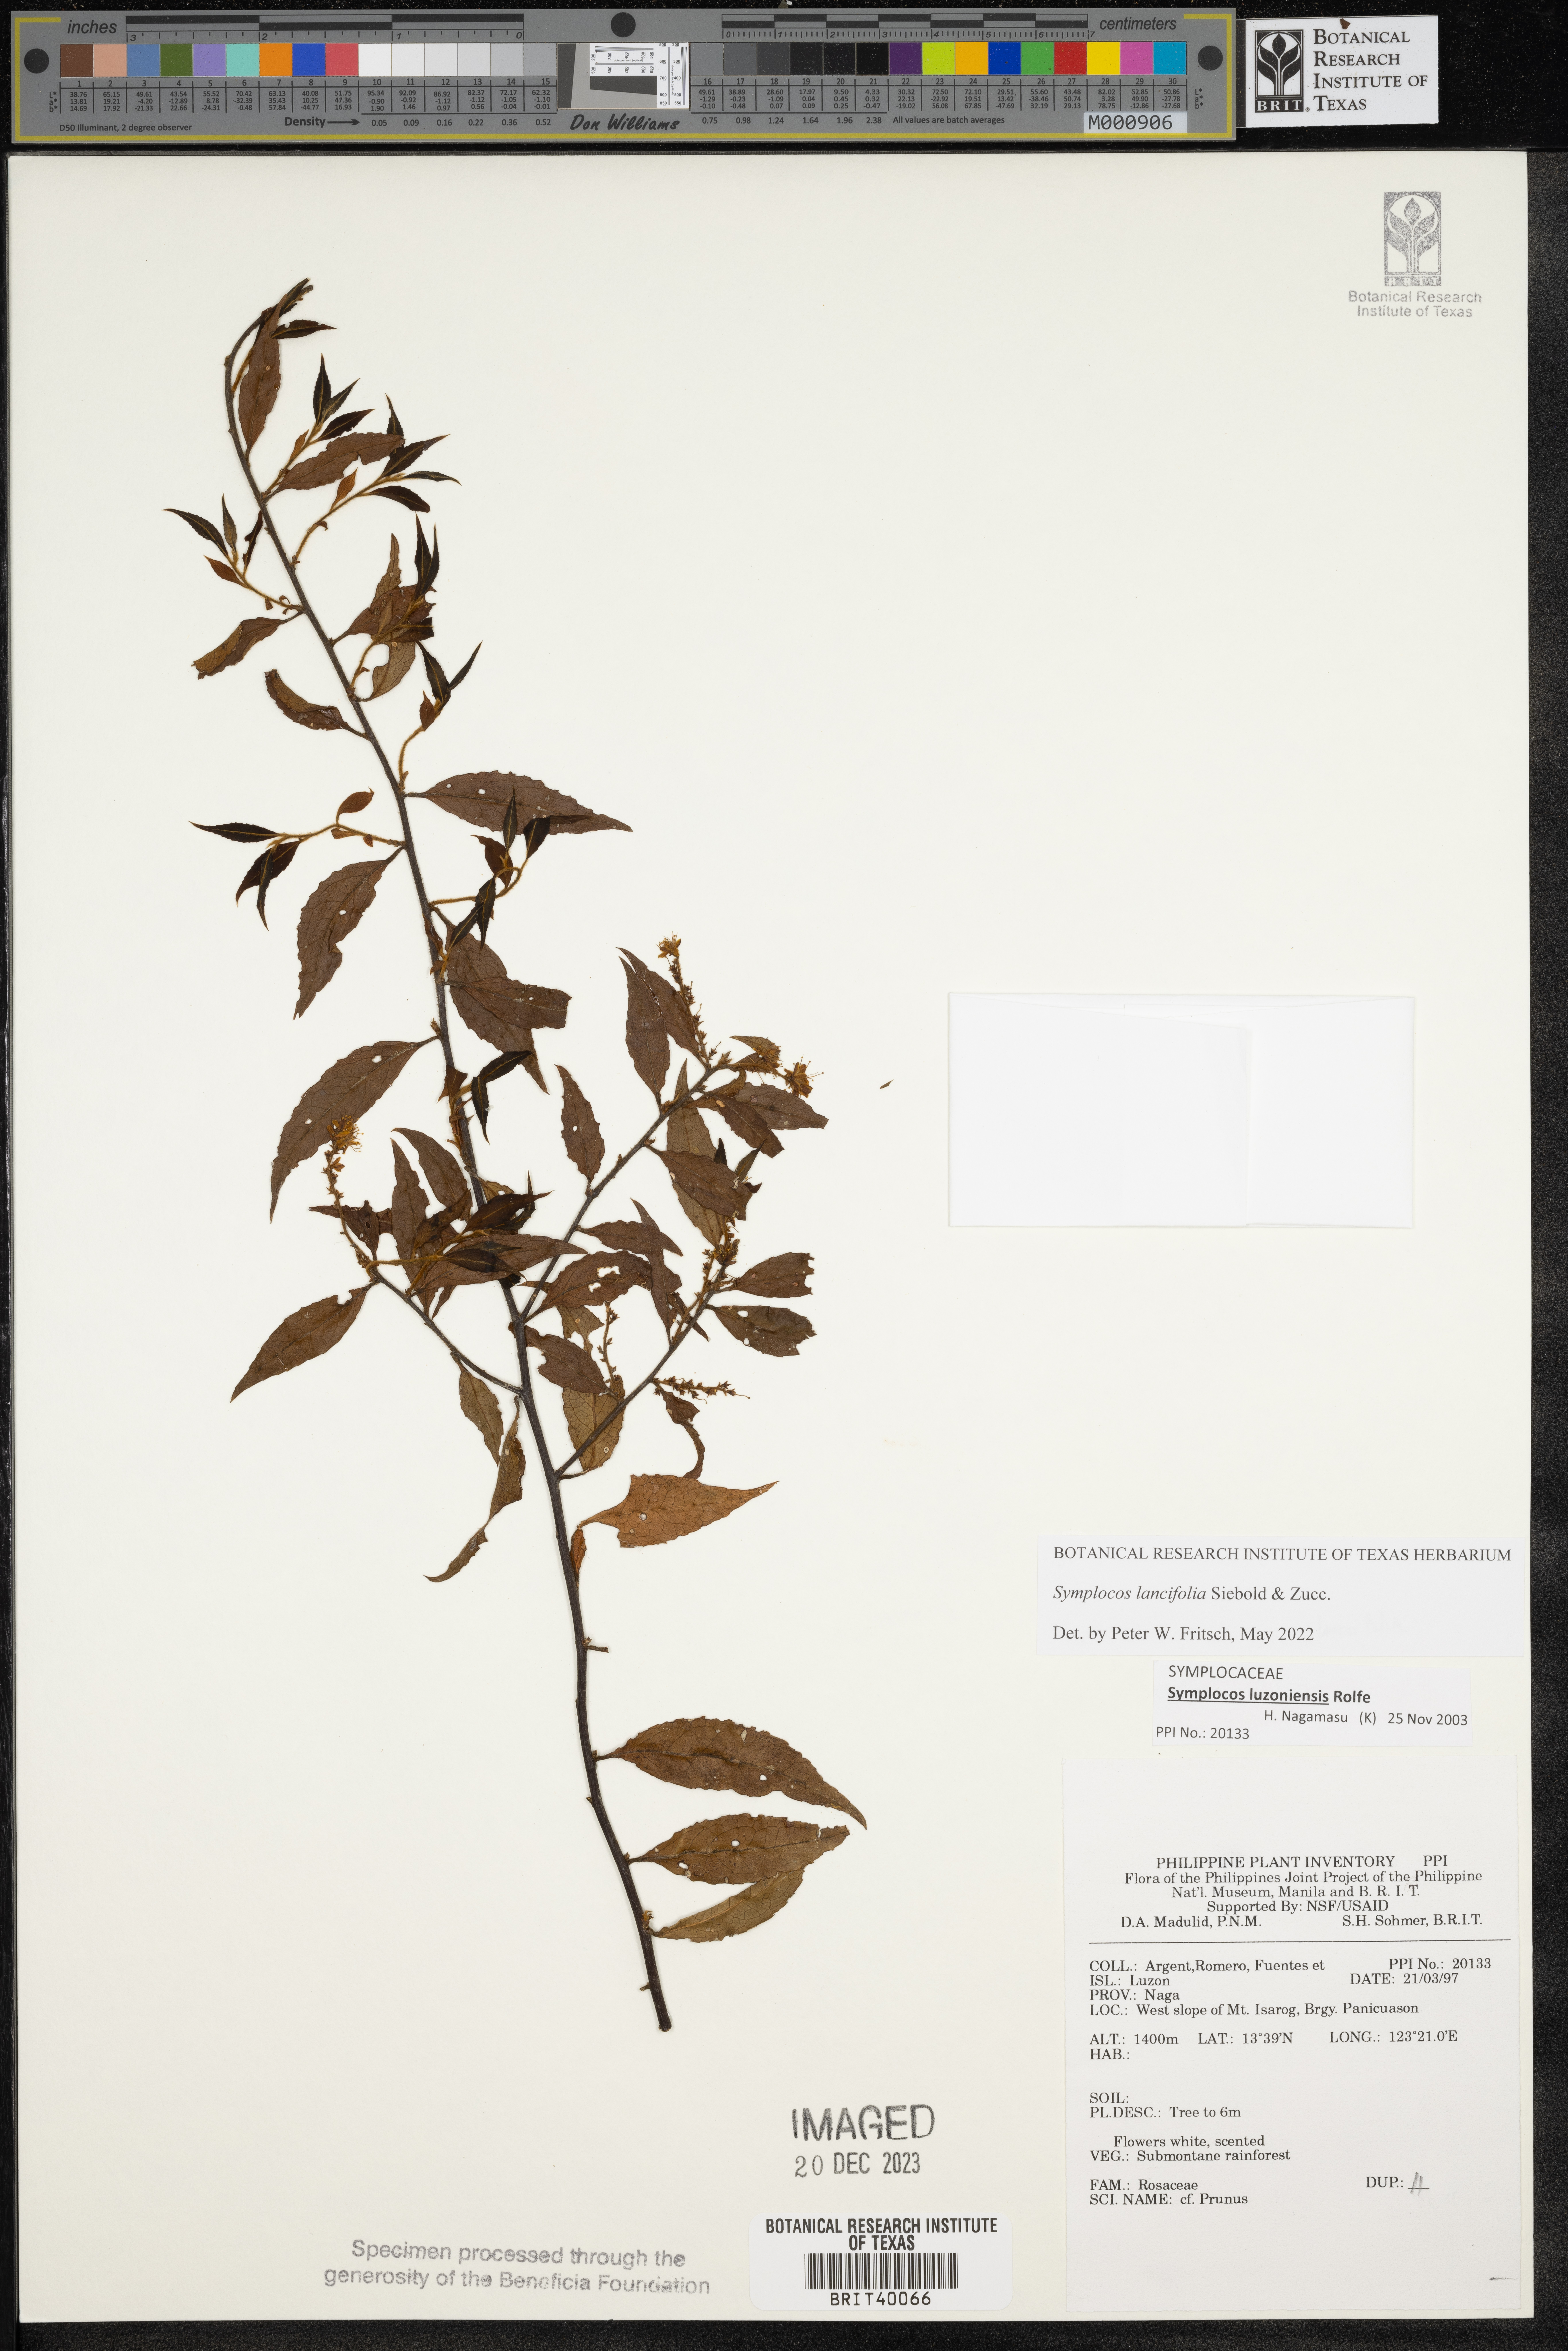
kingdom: Plantae
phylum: Tracheophyta
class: Magnoliopsida
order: Rosales
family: Rosaceae
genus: Prunus
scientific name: Prunus
